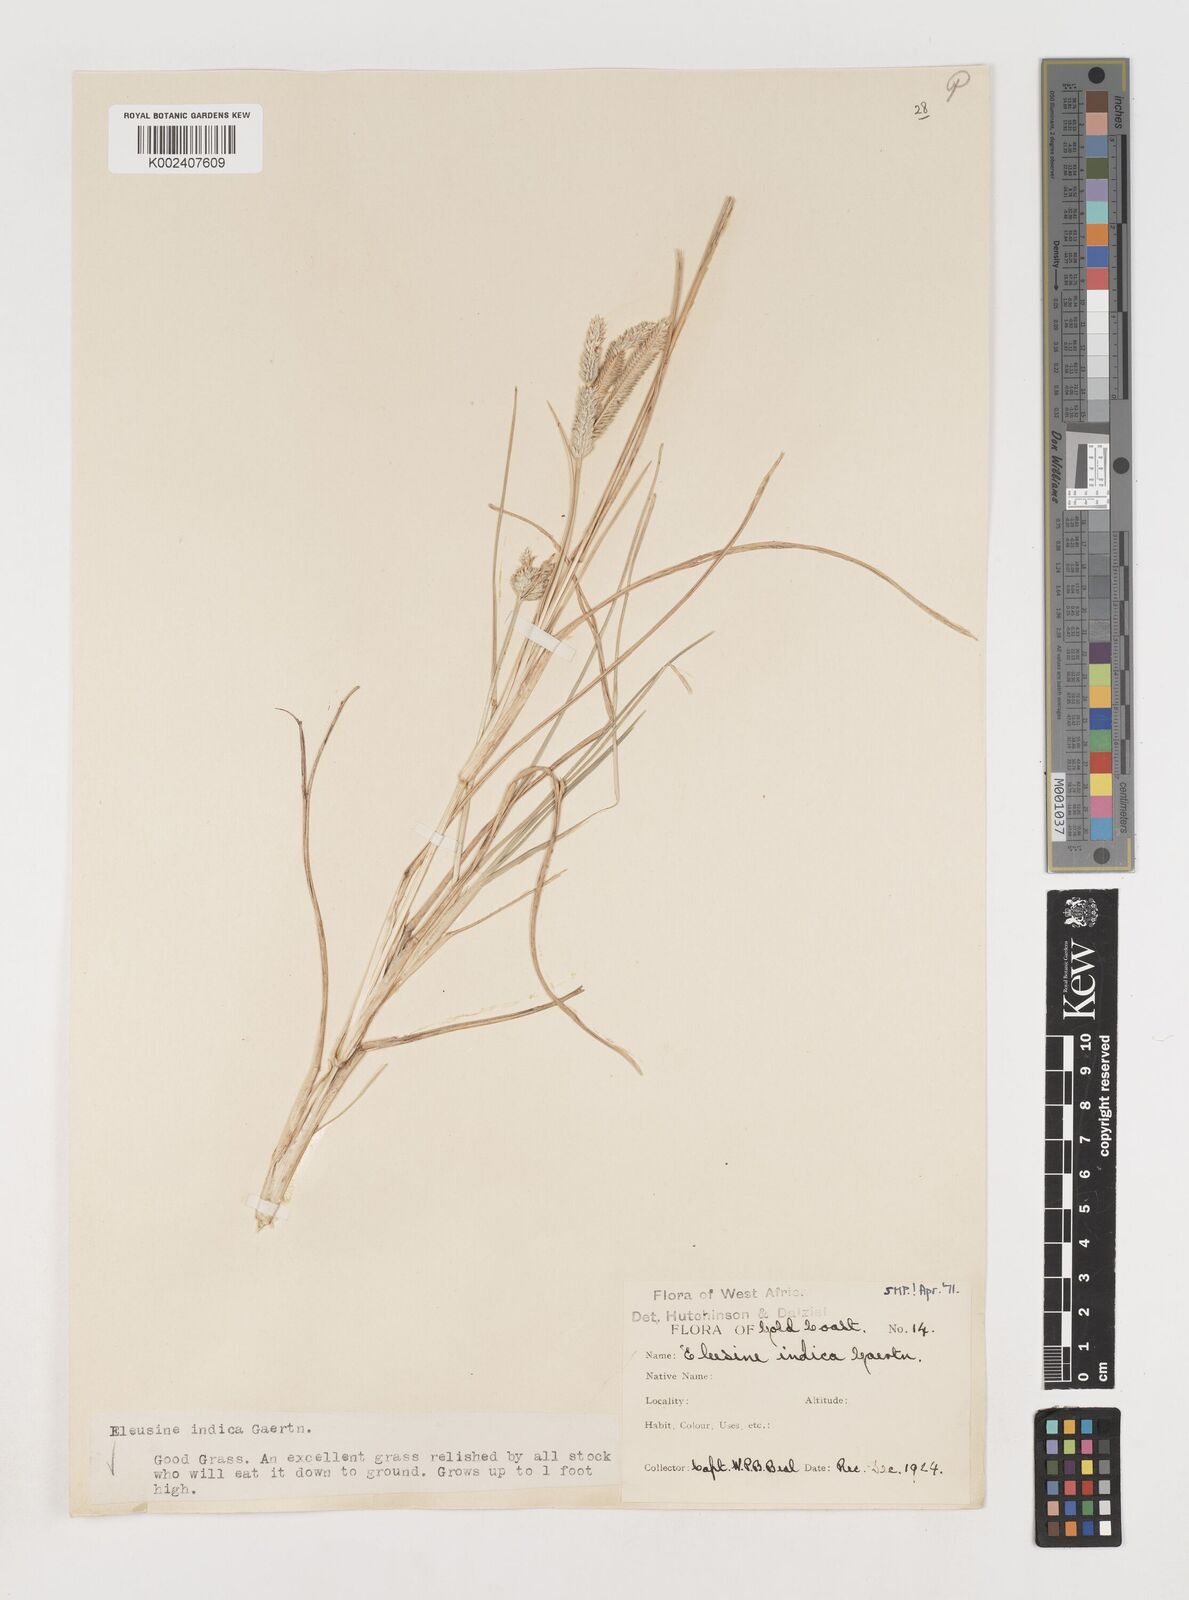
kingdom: Plantae
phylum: Tracheophyta
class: Liliopsida
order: Poales
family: Poaceae
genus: Eleusine
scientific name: Eleusine indica
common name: Yard-grass
